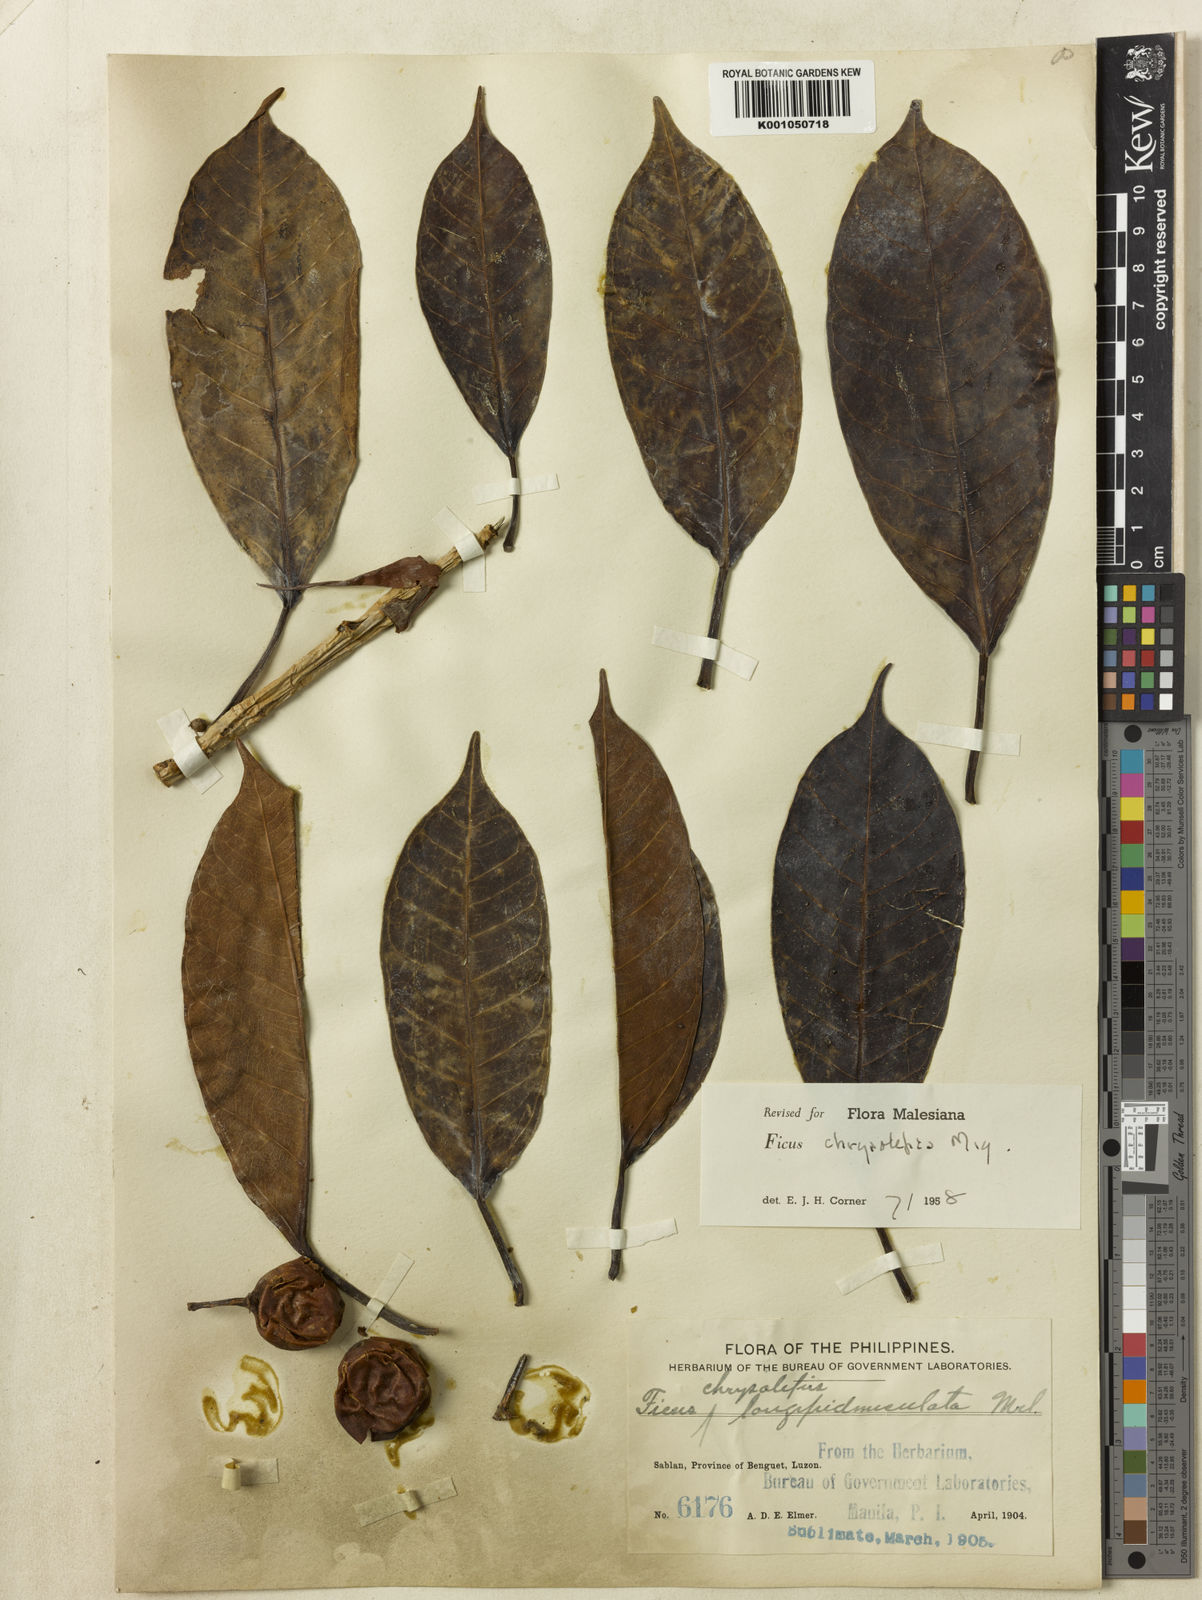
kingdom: Plantae
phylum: Tracheophyta
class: Magnoliopsida
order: Rosales
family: Moraceae
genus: Ficus
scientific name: Ficus chrysolepis
